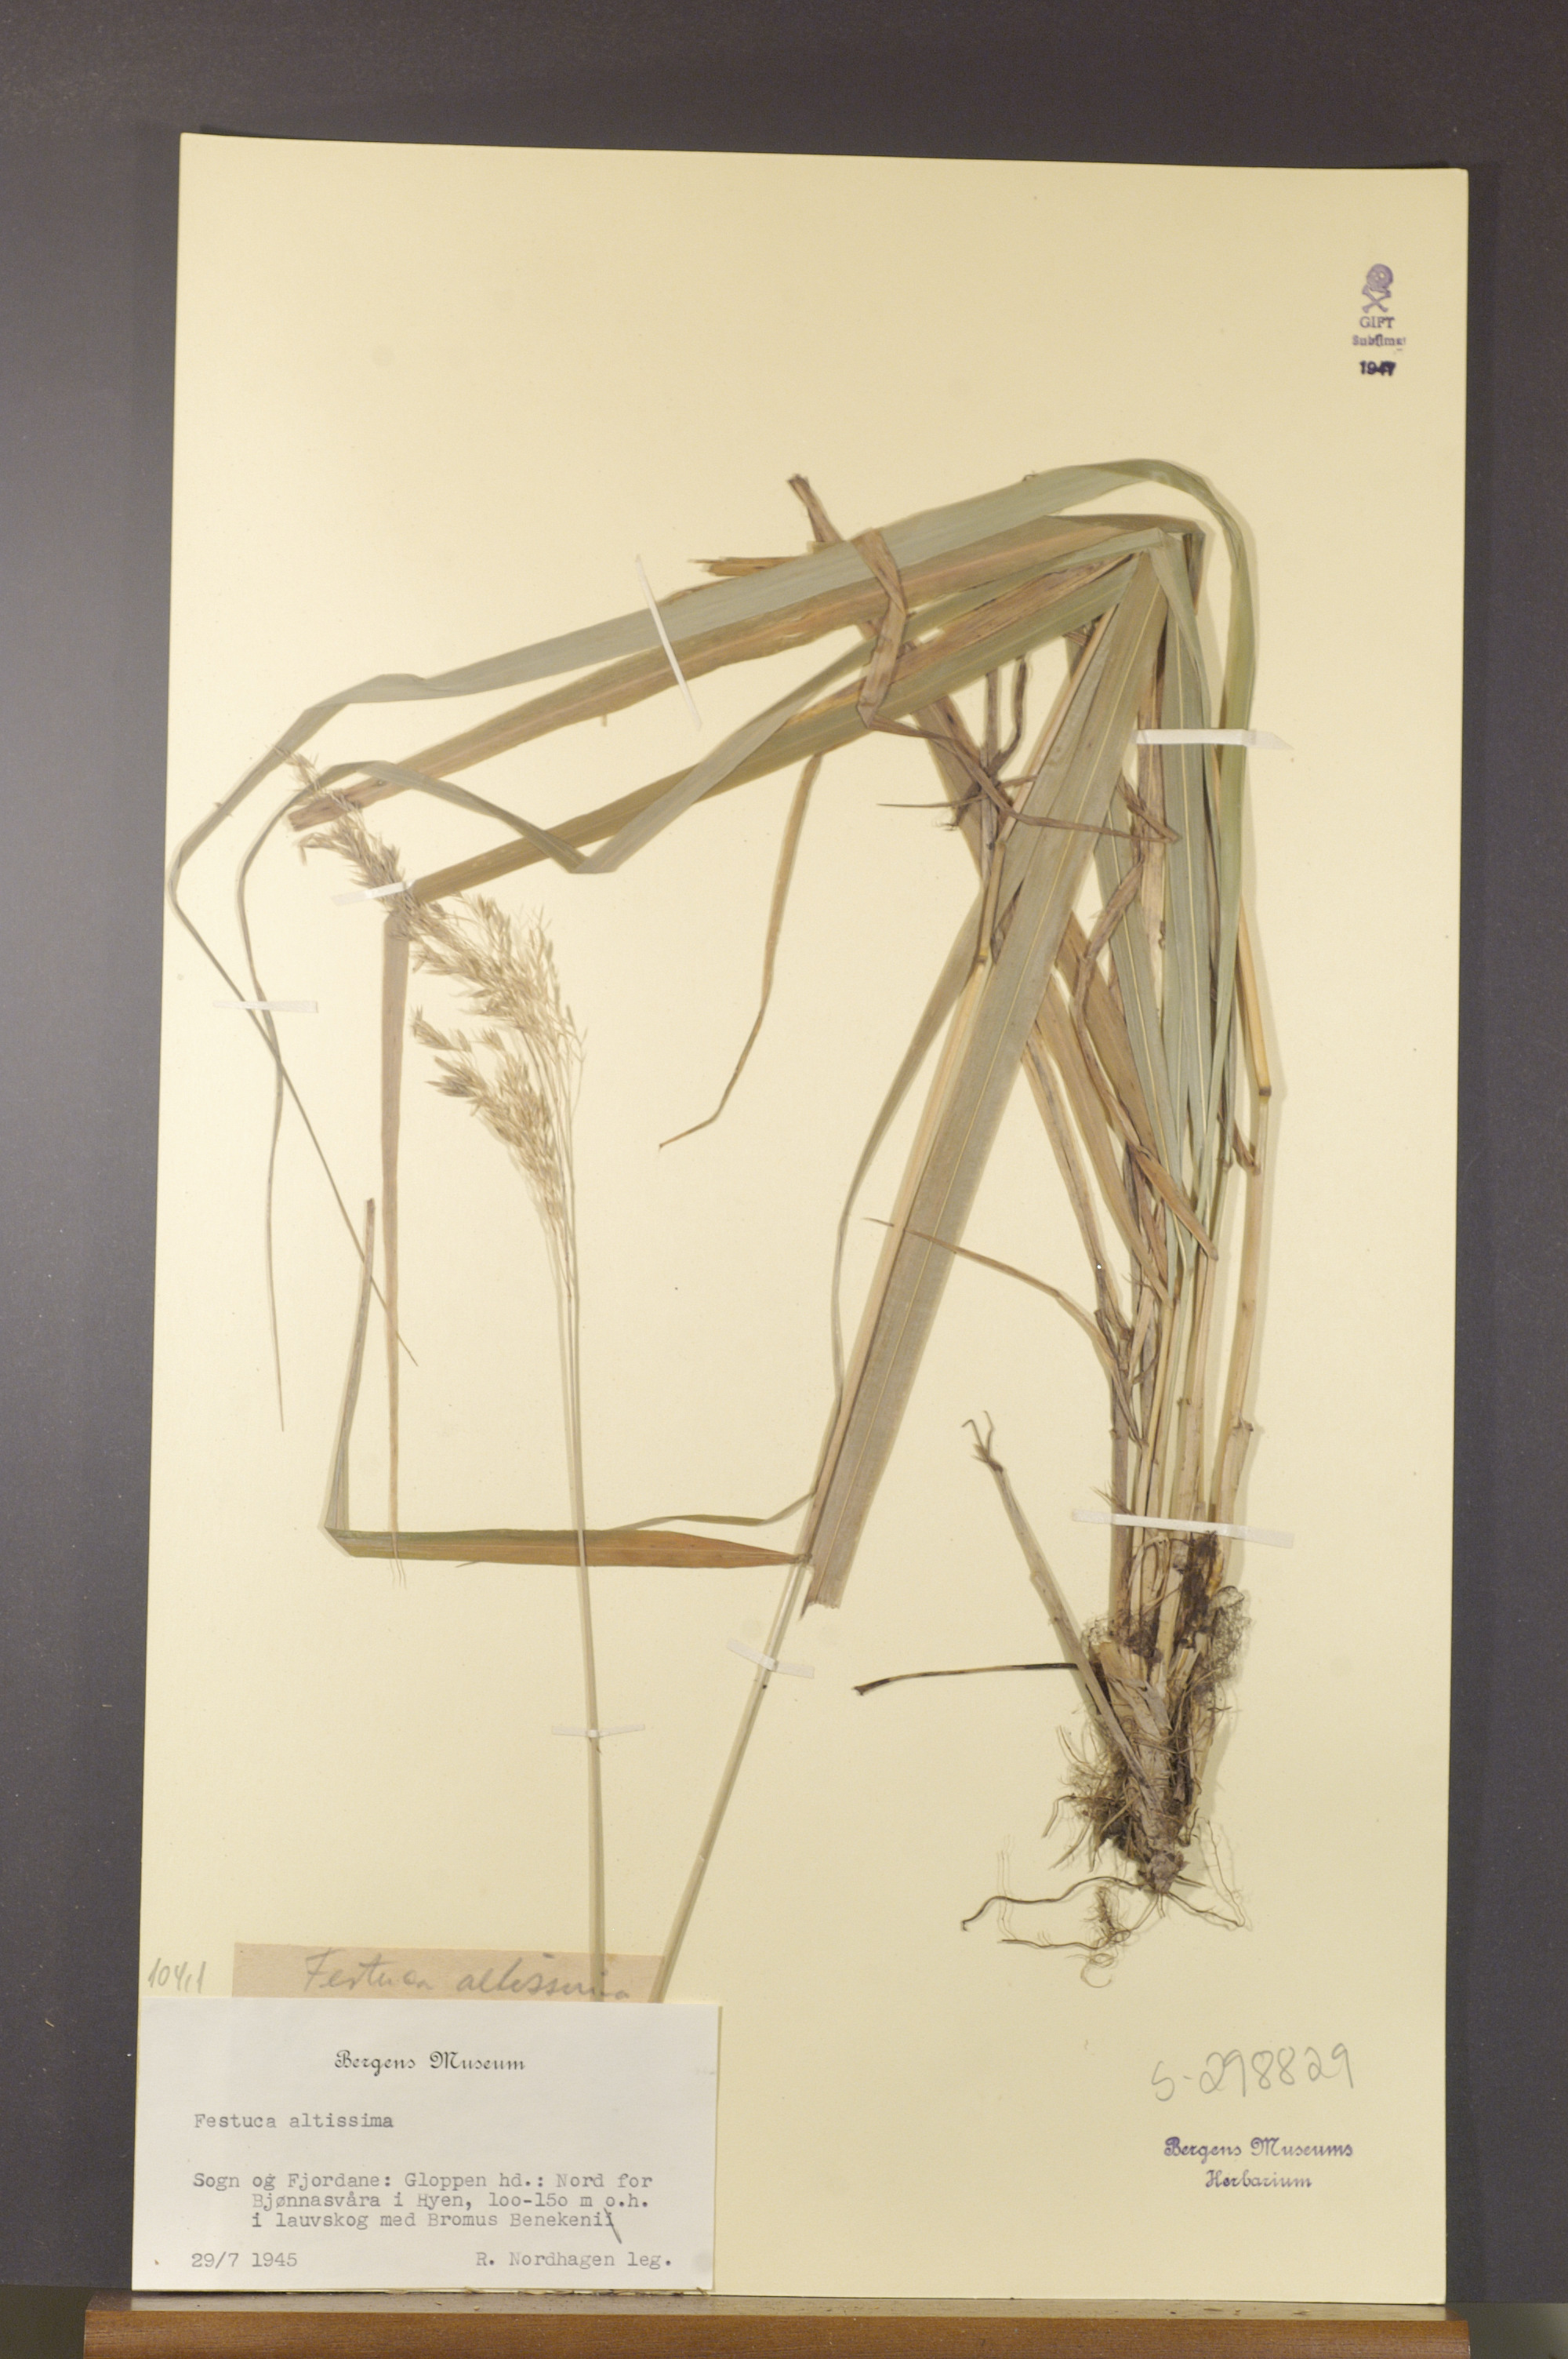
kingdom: Plantae
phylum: Tracheophyta
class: Liliopsida
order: Poales
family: Poaceae
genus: Festuca
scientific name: Festuca altissima
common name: Wood fescue
